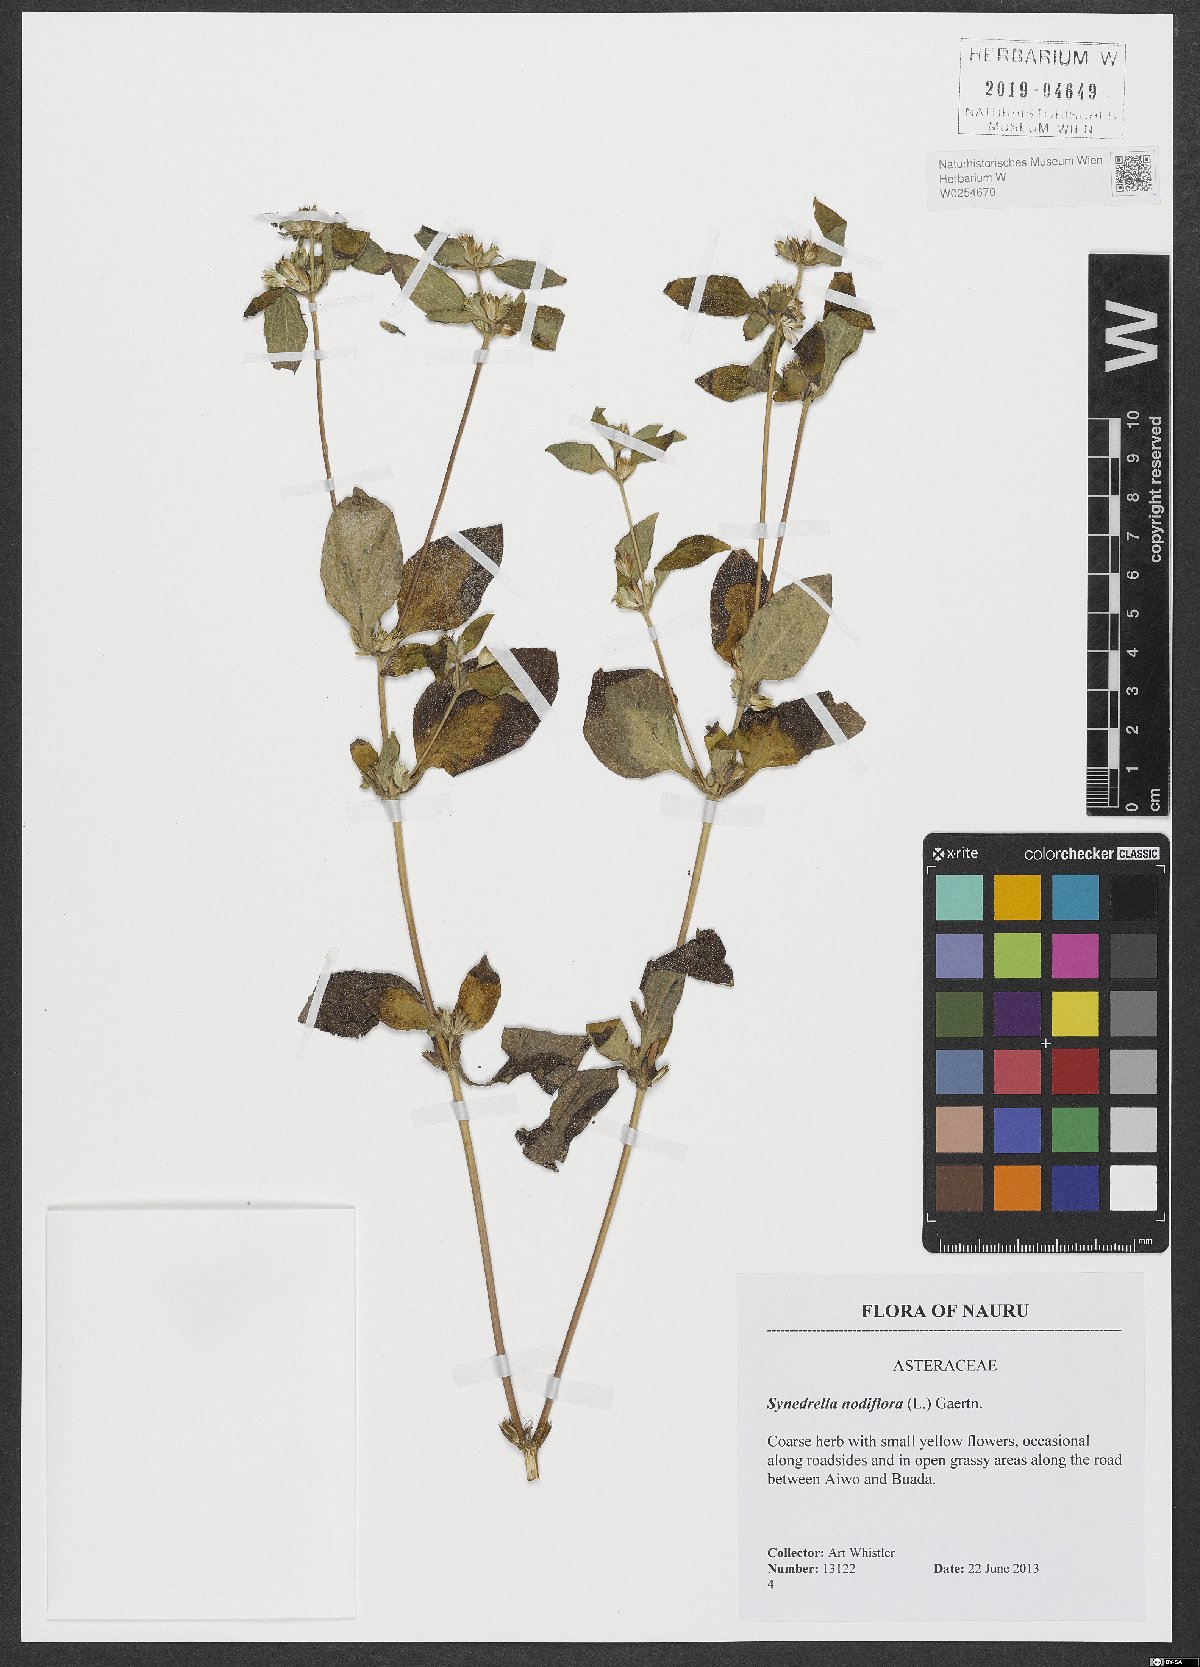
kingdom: Plantae
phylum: Tracheophyta
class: Magnoliopsida
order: Asterales
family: Asteraceae
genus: Synedrella
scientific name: Synedrella nodiflora
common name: Nodeweed
